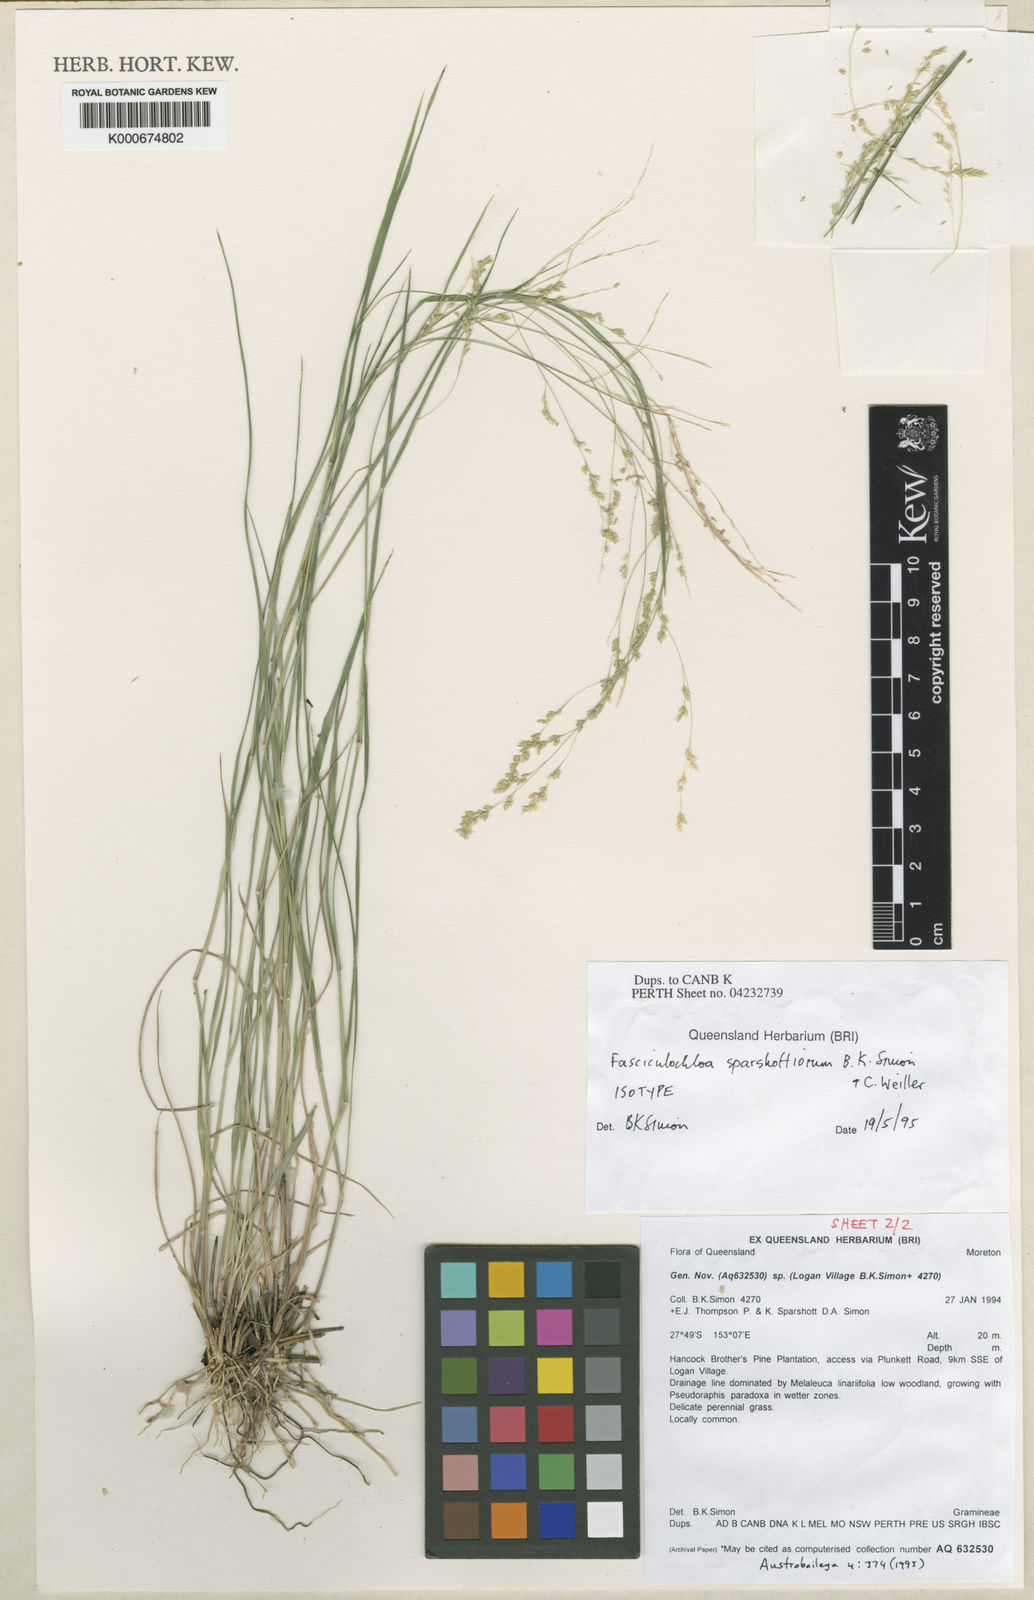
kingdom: Plantae
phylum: Tracheophyta
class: Liliopsida
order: Poales
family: Poaceae
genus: Steinchisma
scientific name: Steinchisma hians
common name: Gaping panic grass
